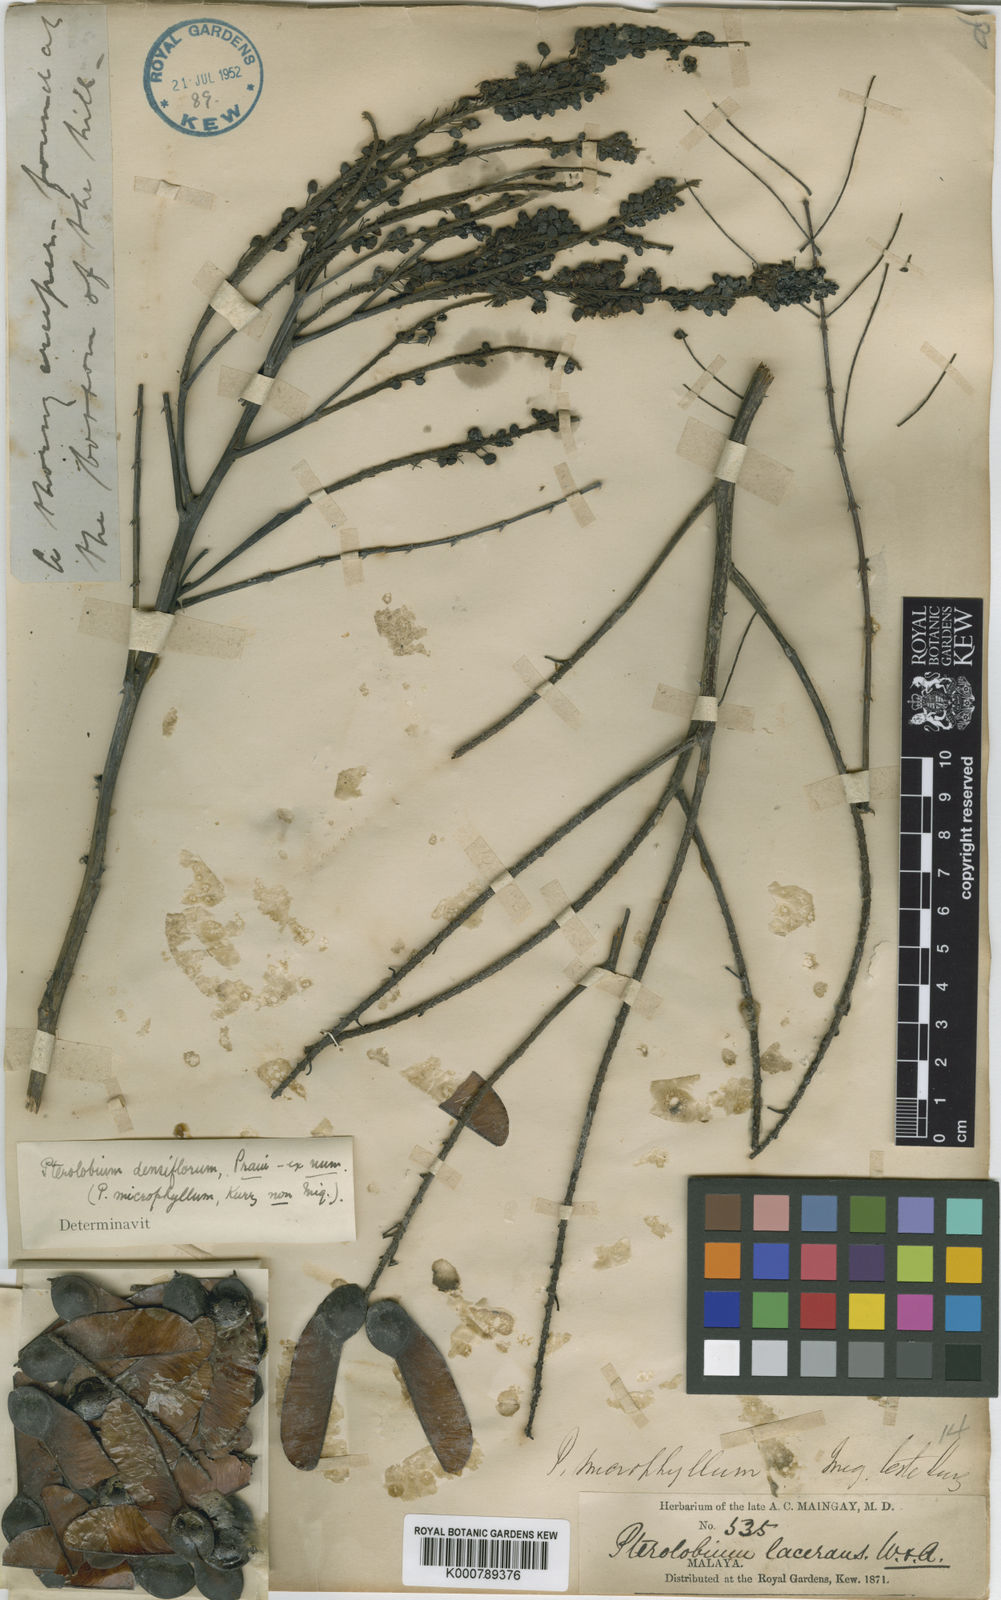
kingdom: Plantae
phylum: Tracheophyta
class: Magnoliopsida
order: Fabales
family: Fabaceae
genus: Pterolobium
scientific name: Pterolobium
